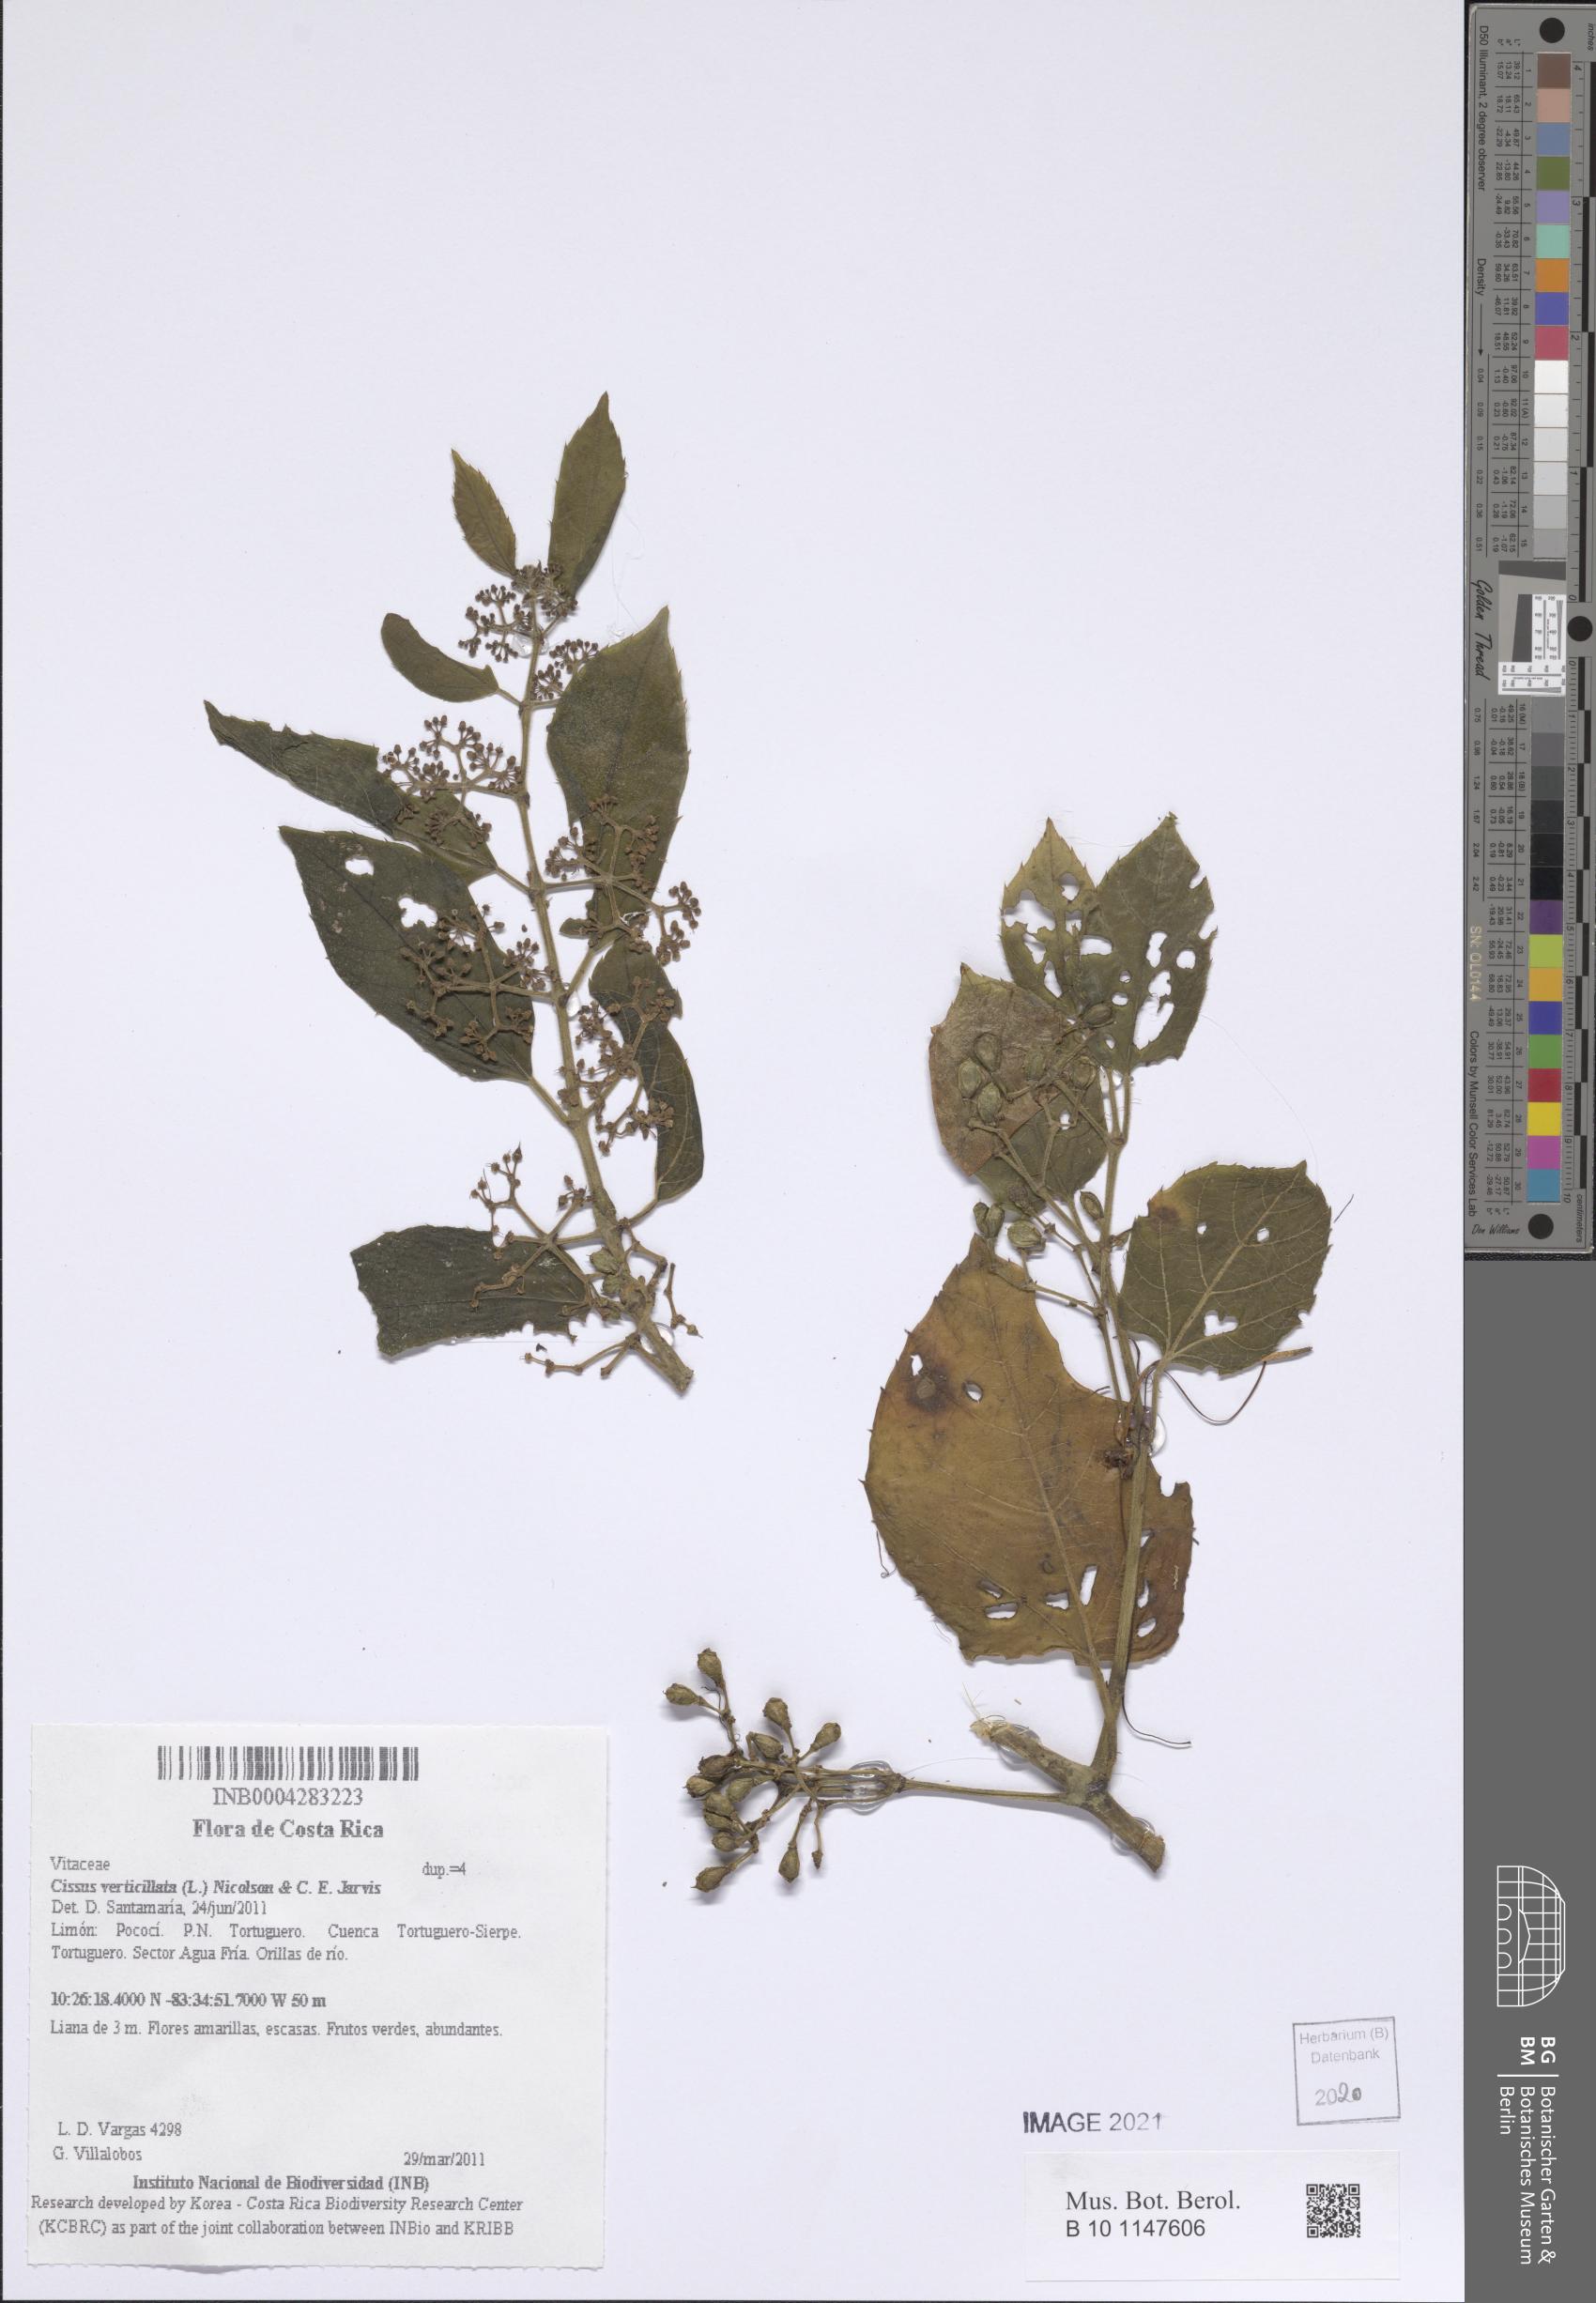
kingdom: Plantae
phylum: Tracheophyta
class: Magnoliopsida
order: Vitales
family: Vitaceae
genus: Cissus
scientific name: Cissus verticillata
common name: Princess vine
